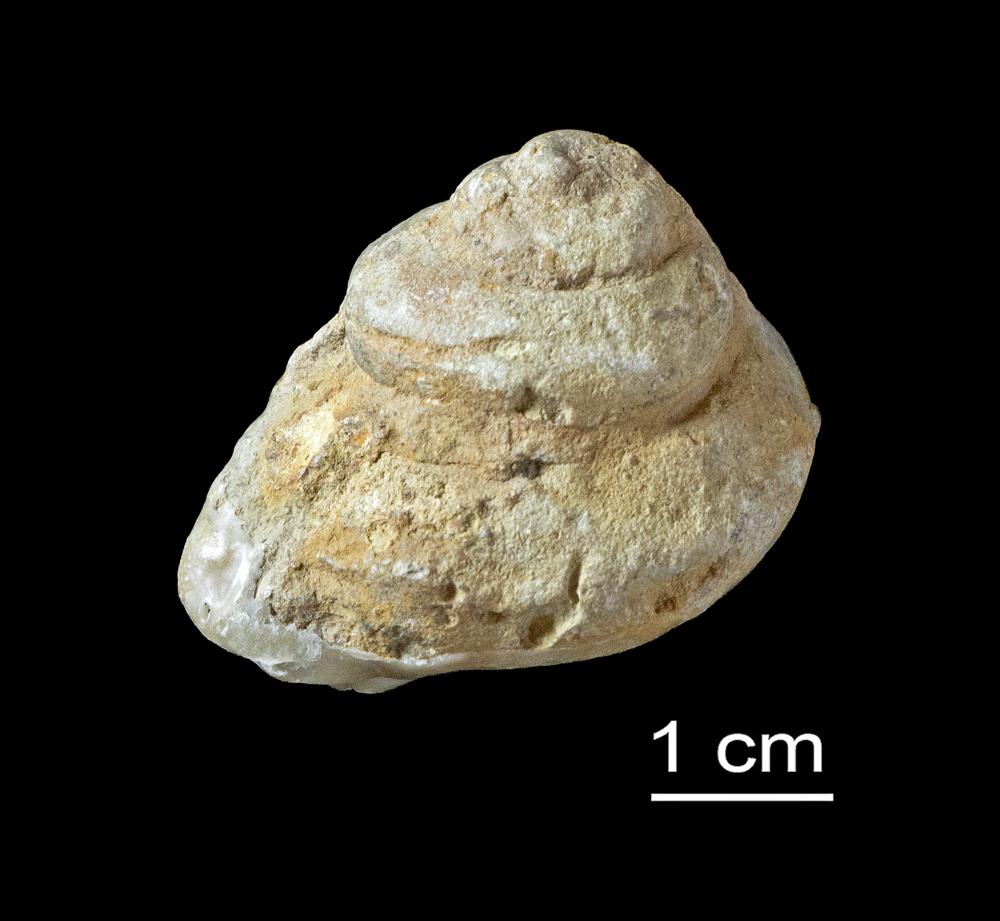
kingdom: Animalia
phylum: Mollusca
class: Gastropoda
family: Holopeidae
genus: Holopea
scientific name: Holopea
